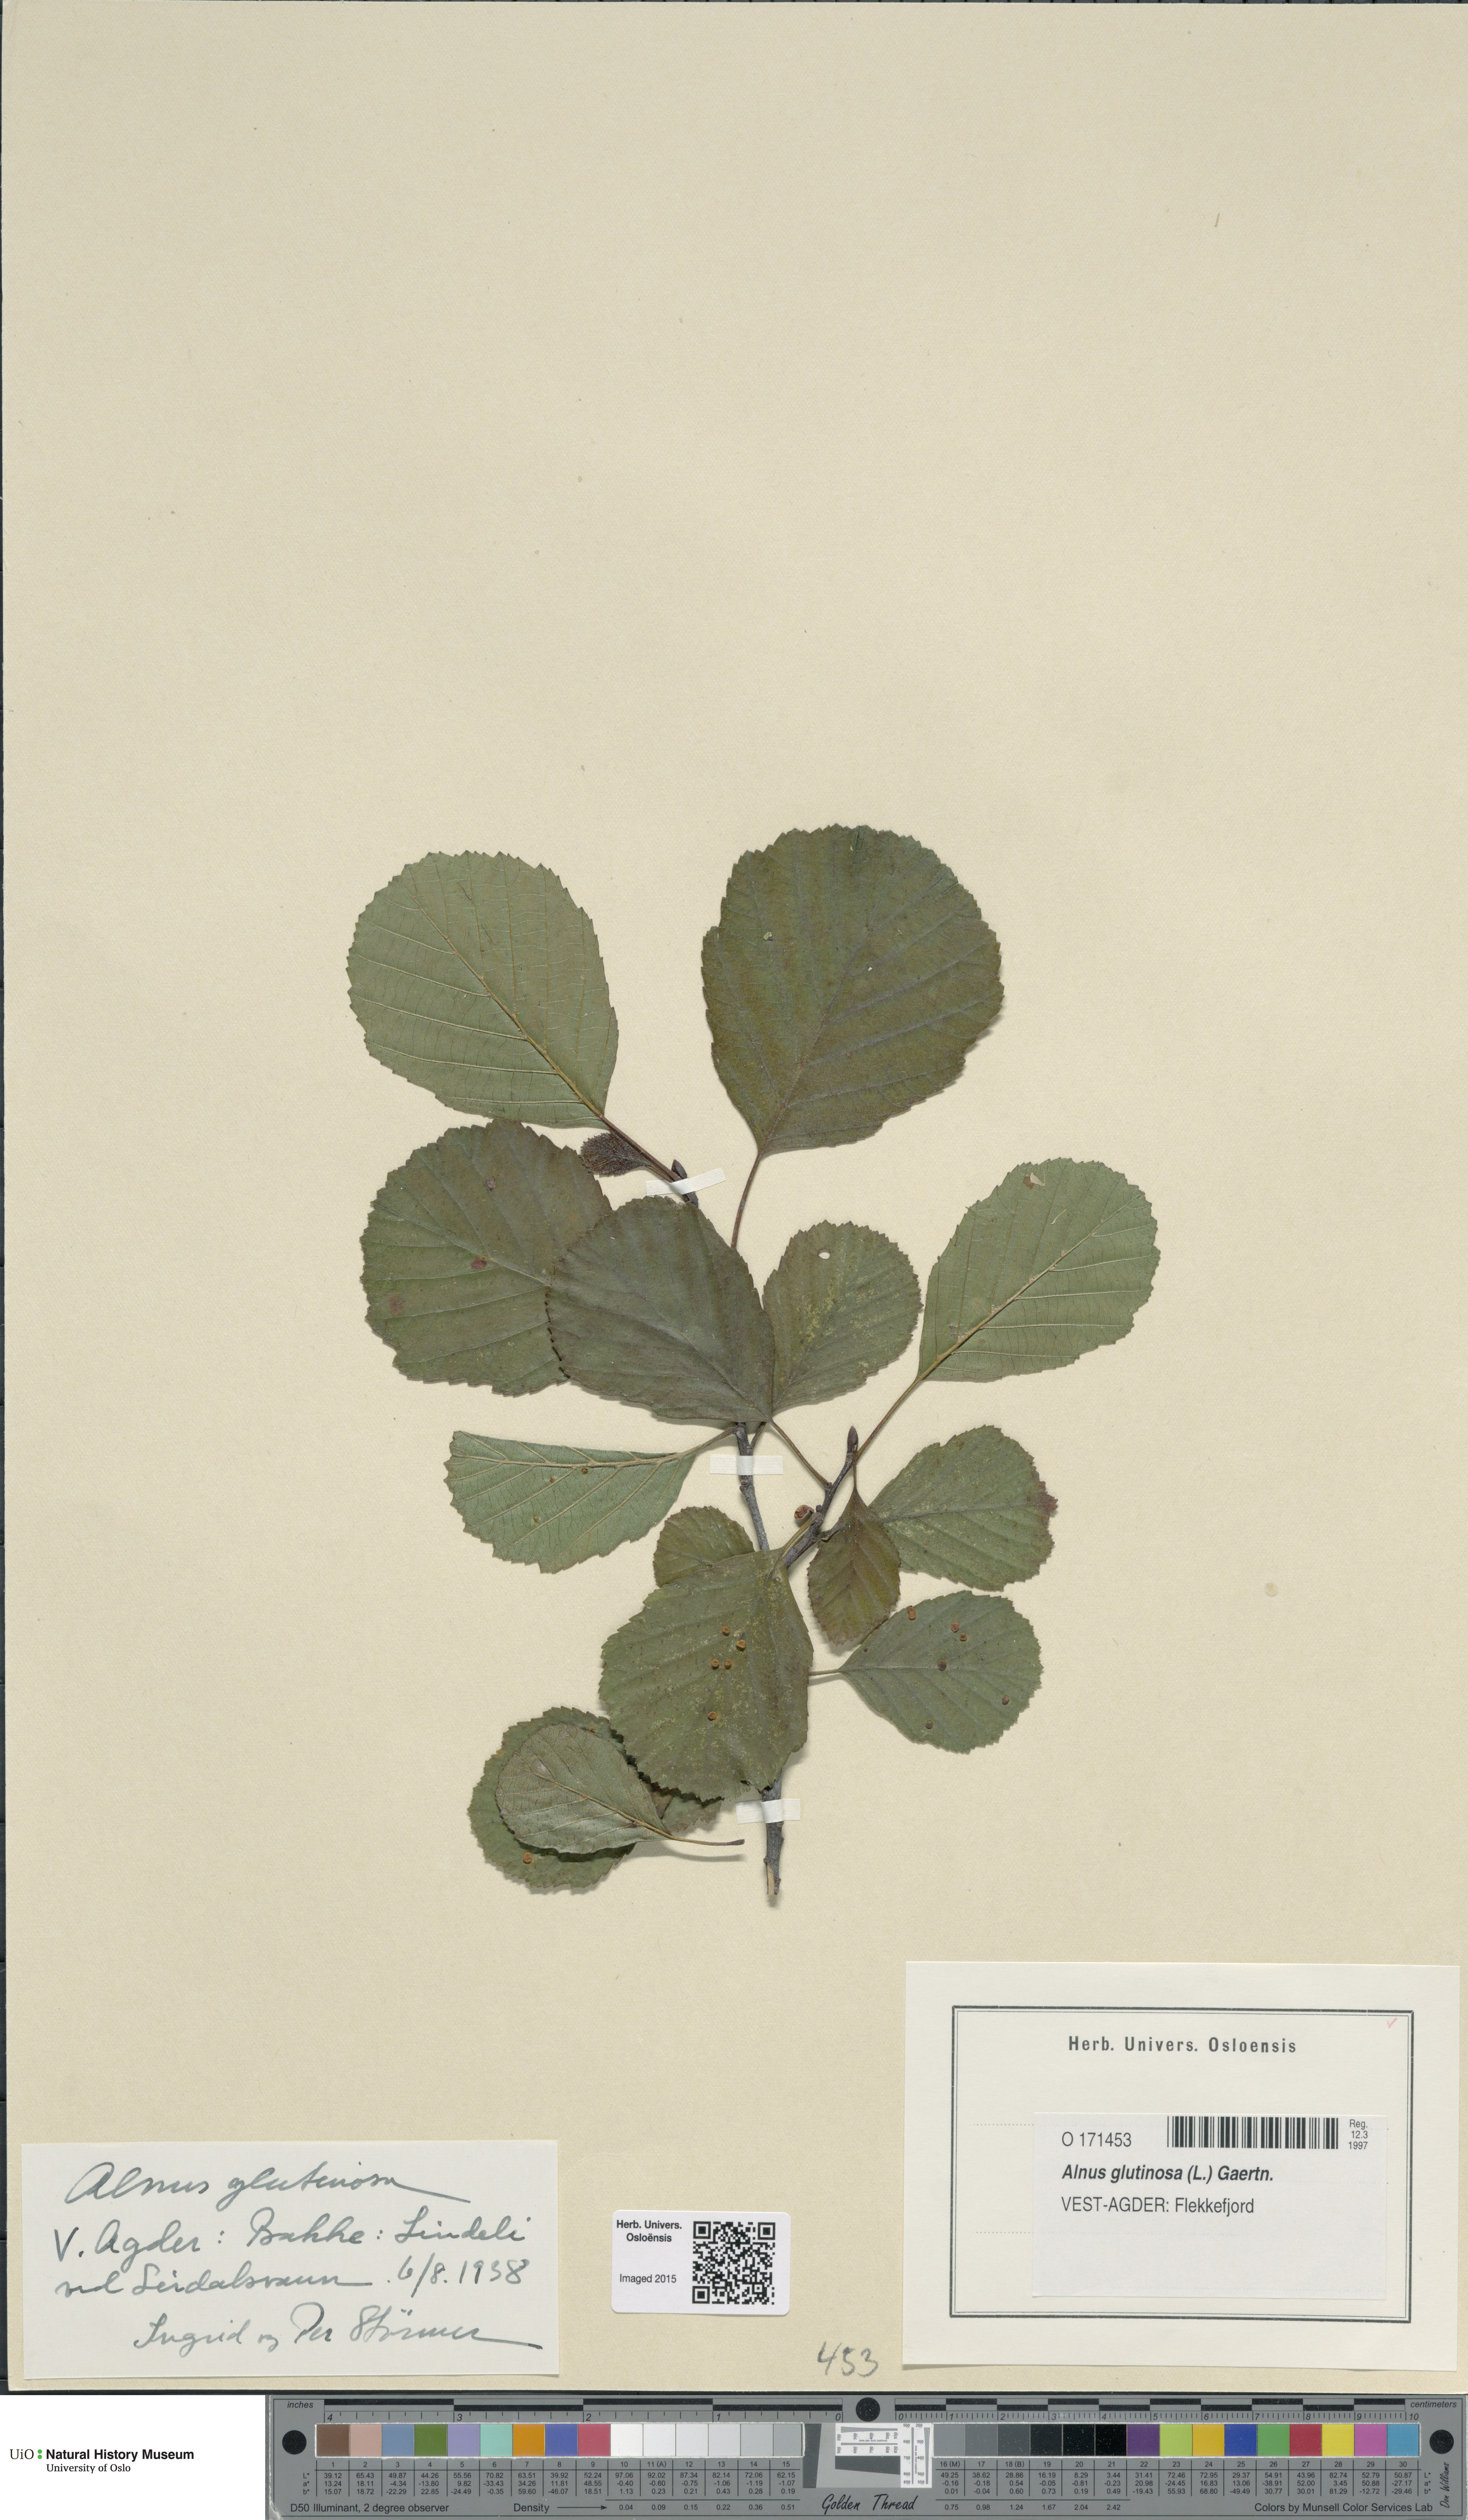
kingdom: Plantae
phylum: Tracheophyta
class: Magnoliopsida
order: Fagales
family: Betulaceae
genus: Alnus
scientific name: Alnus glutinosa
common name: Black alder
